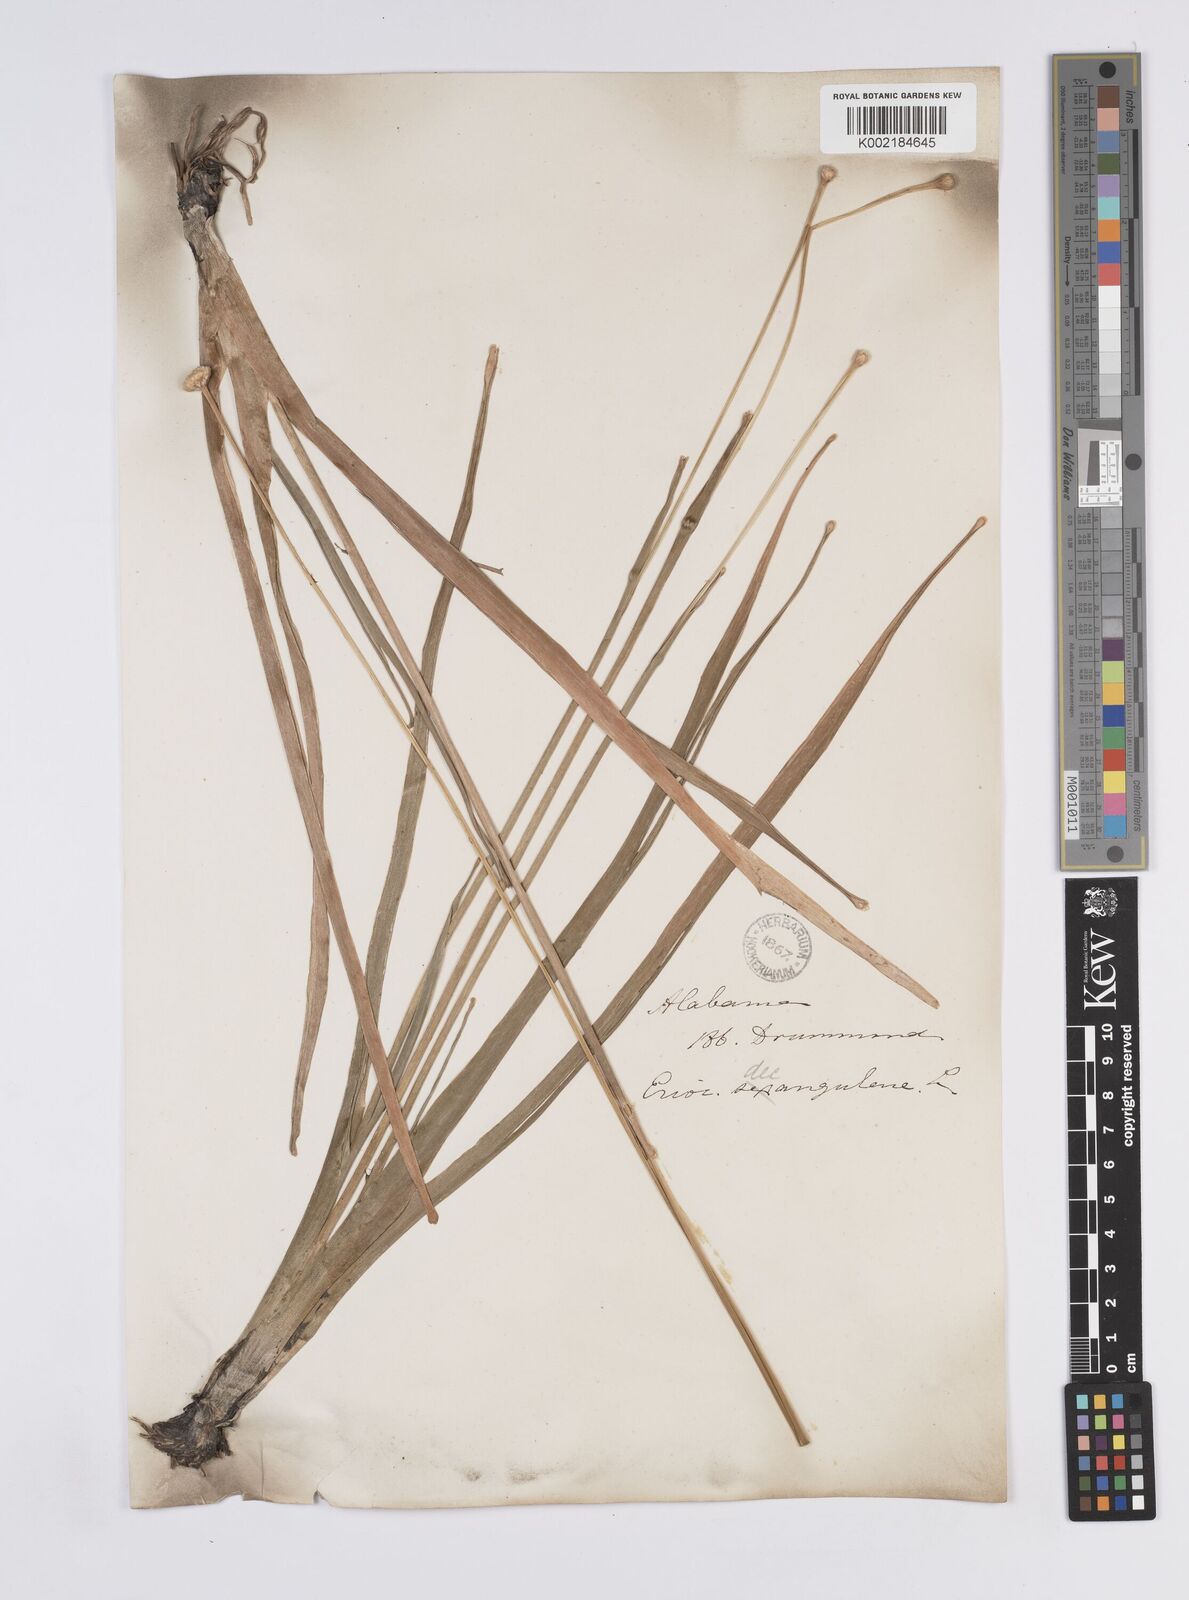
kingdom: Plantae
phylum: Tracheophyta
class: Liliopsida
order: Poales
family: Eriocaulaceae
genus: Eriocaulon
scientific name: Eriocaulon decangulare
